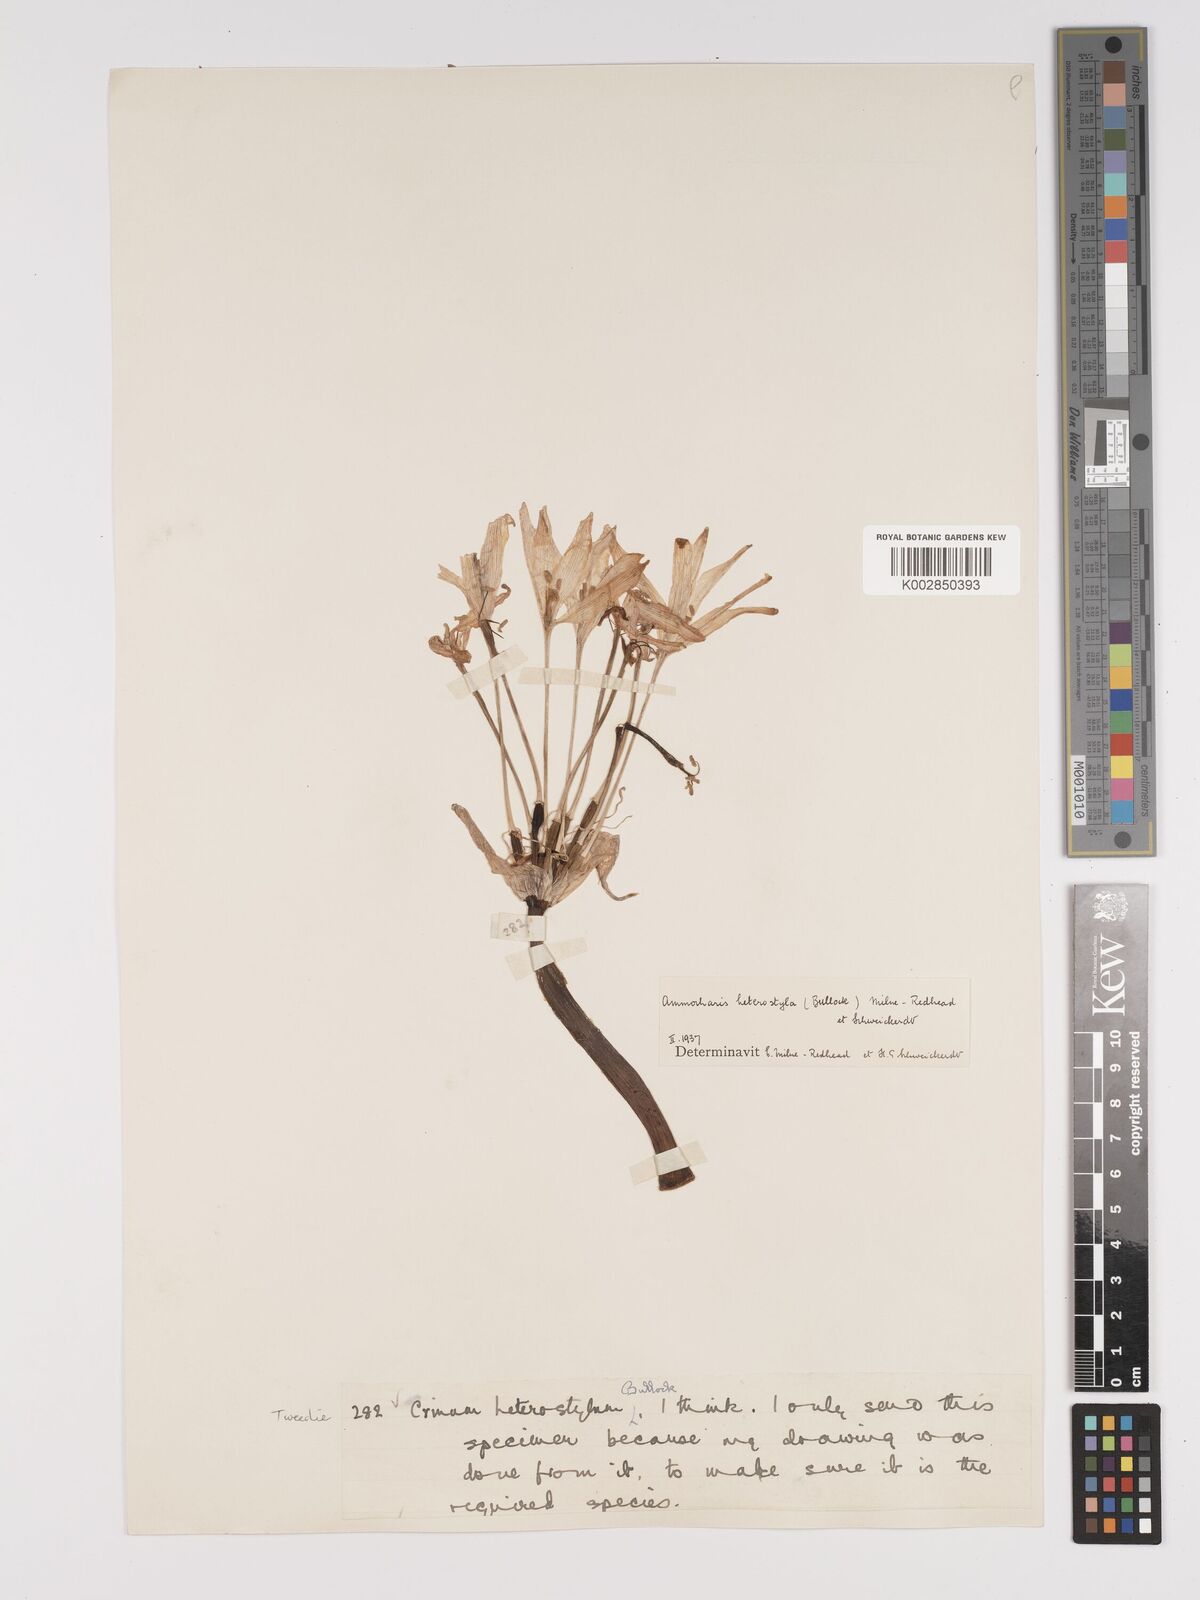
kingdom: Plantae
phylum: Tracheophyta
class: Liliopsida
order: Asparagales
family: Amaryllidaceae
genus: Ammocharis
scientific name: Ammocharis angolensis
